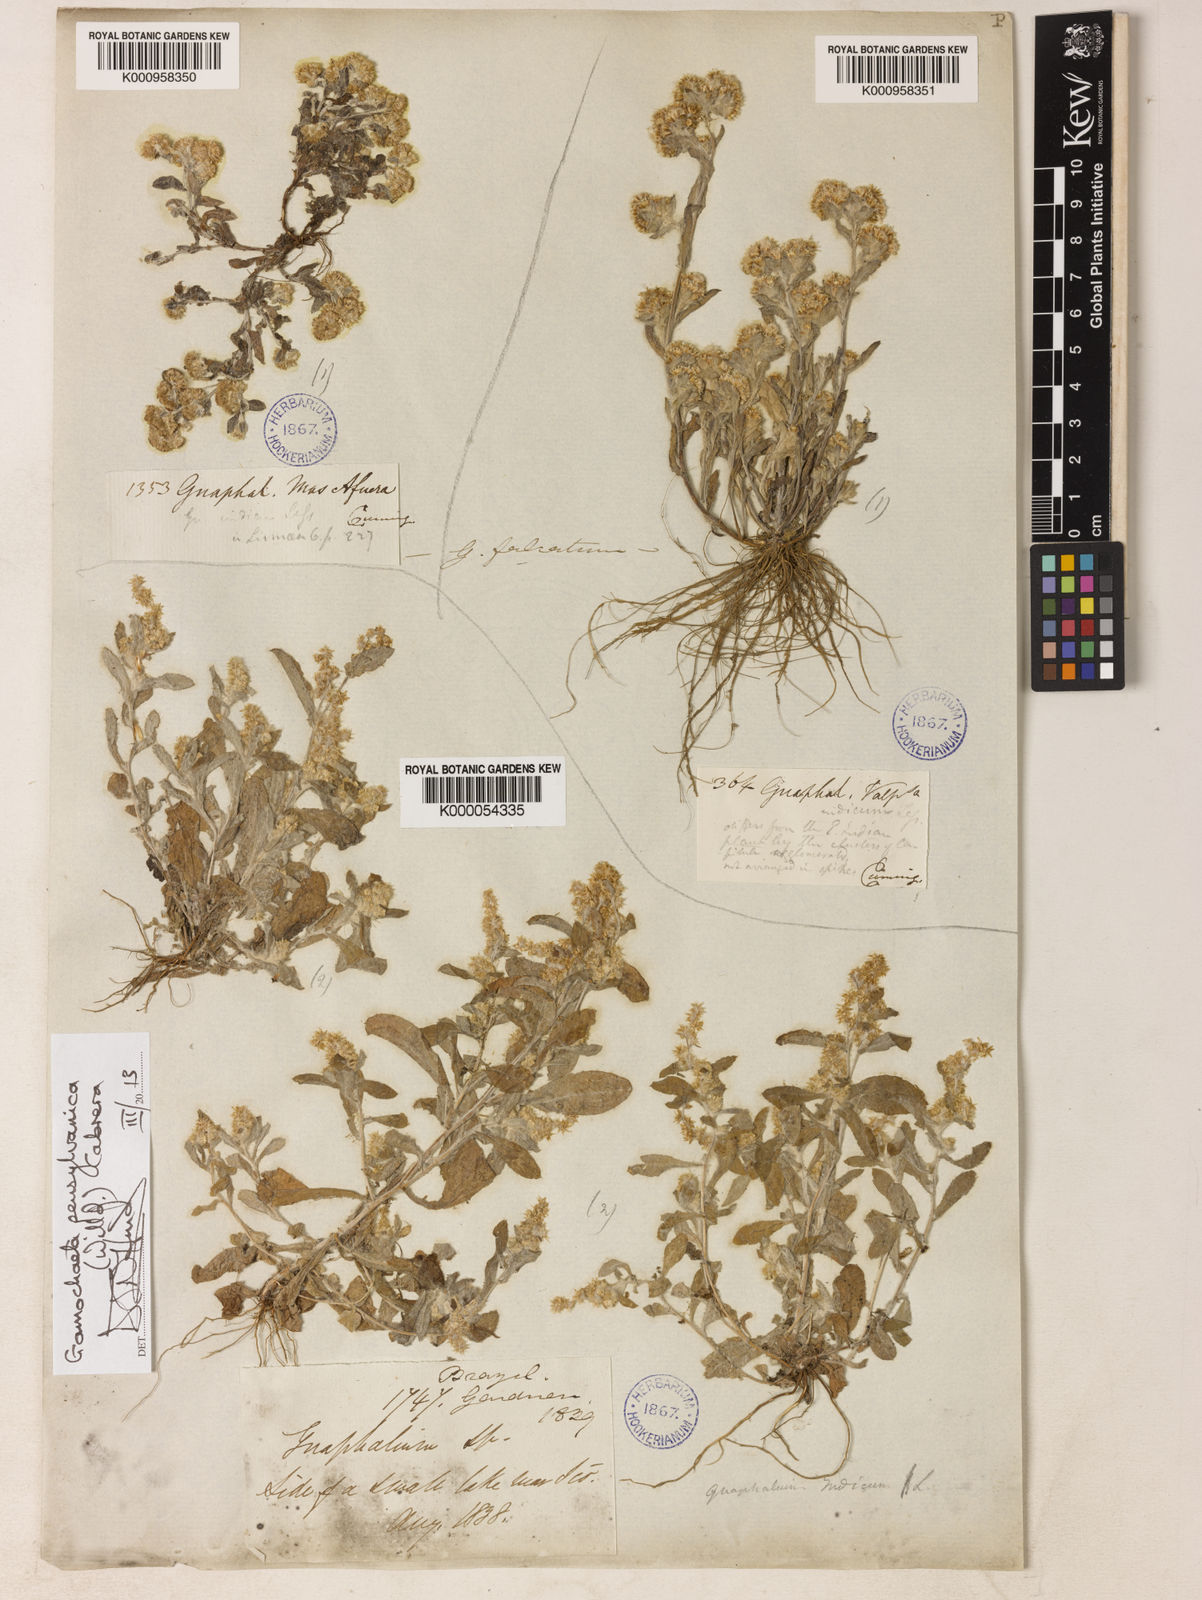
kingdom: Plantae
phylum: Tracheophyta
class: Magnoliopsida
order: Asterales
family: Asteraceae
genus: Gamochaeta
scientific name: Gamochaeta pensylvanica
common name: Pennsylvania everlasting
